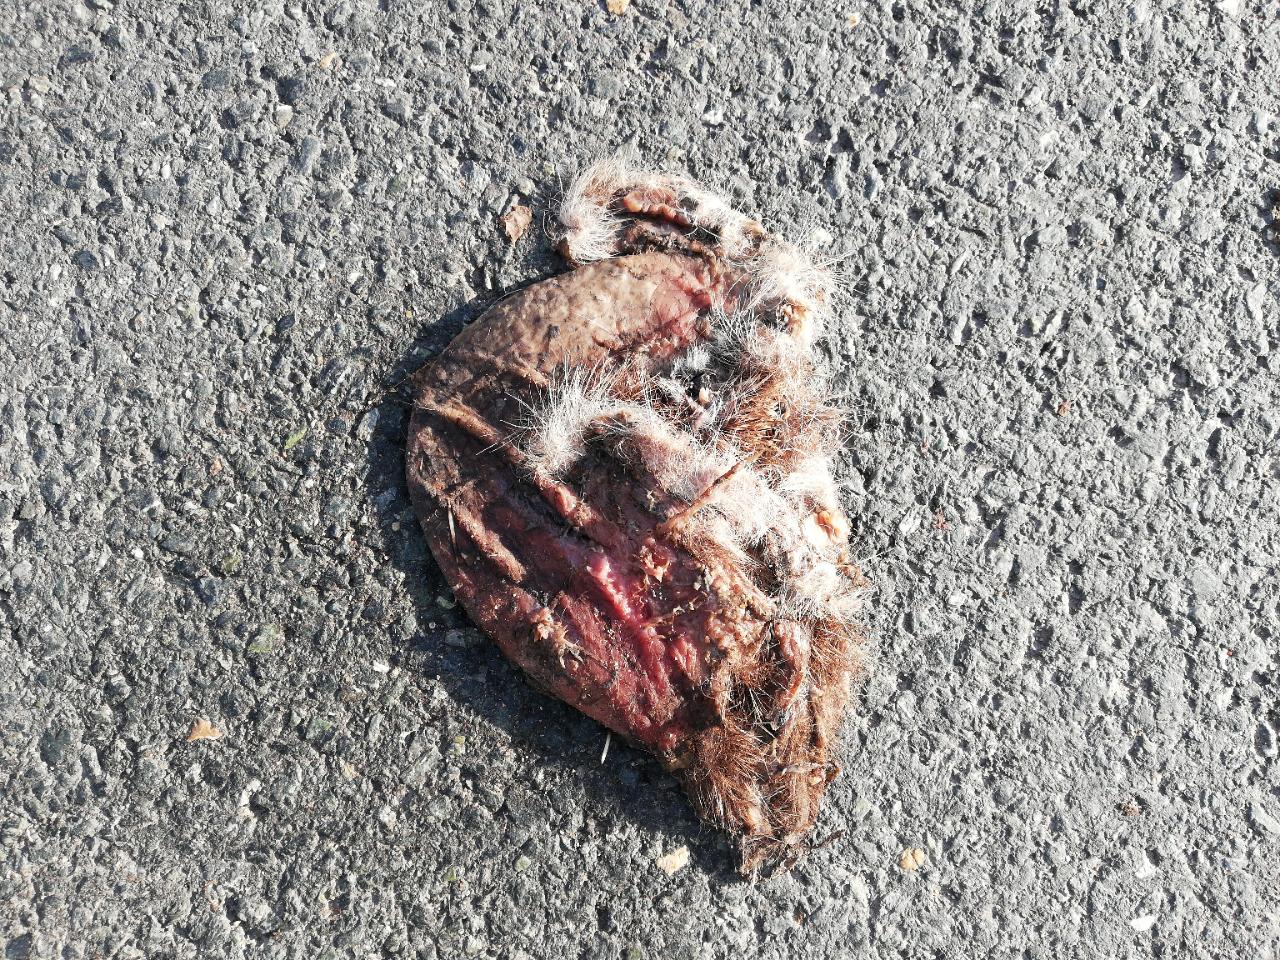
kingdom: Animalia
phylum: Chordata
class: Mammalia
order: Erinaceomorpha
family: Erinaceidae
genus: Erinaceus
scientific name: Erinaceus
